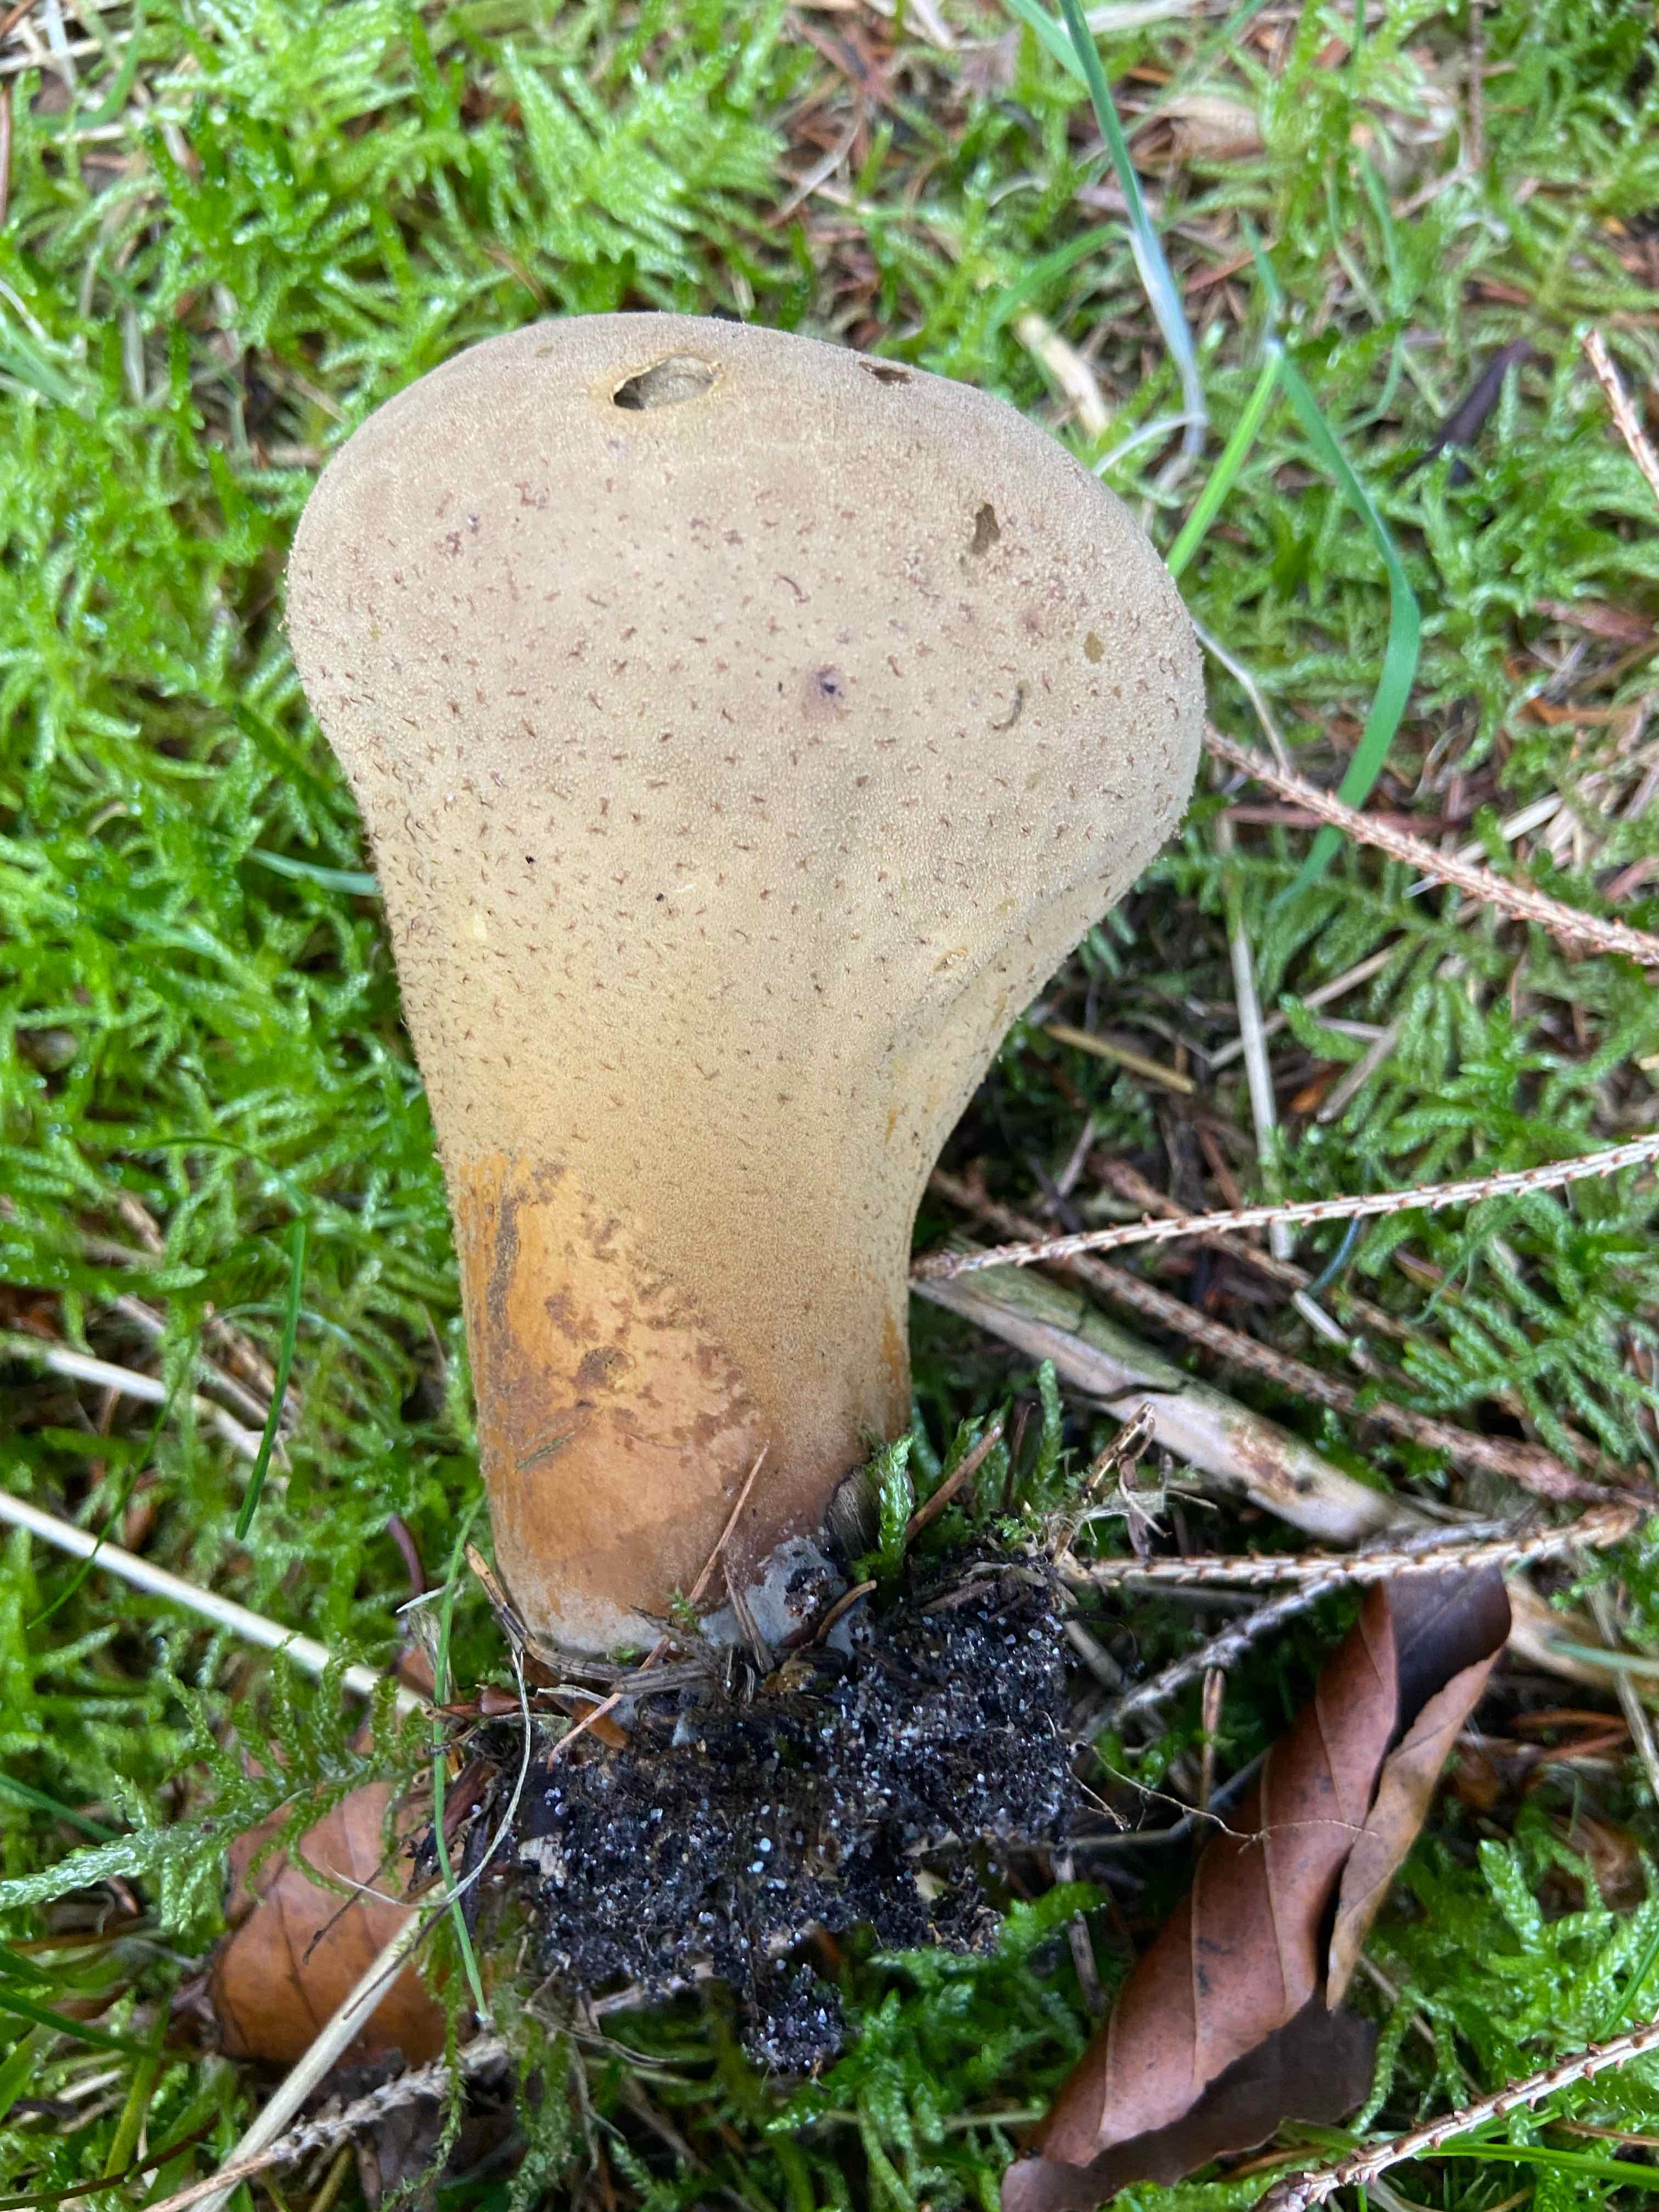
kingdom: Fungi
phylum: Basidiomycota
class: Agaricomycetes
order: Agaricales
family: Lycoperdaceae
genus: Lycoperdon
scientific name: Lycoperdon excipuliforme
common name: højstokket støvbold
